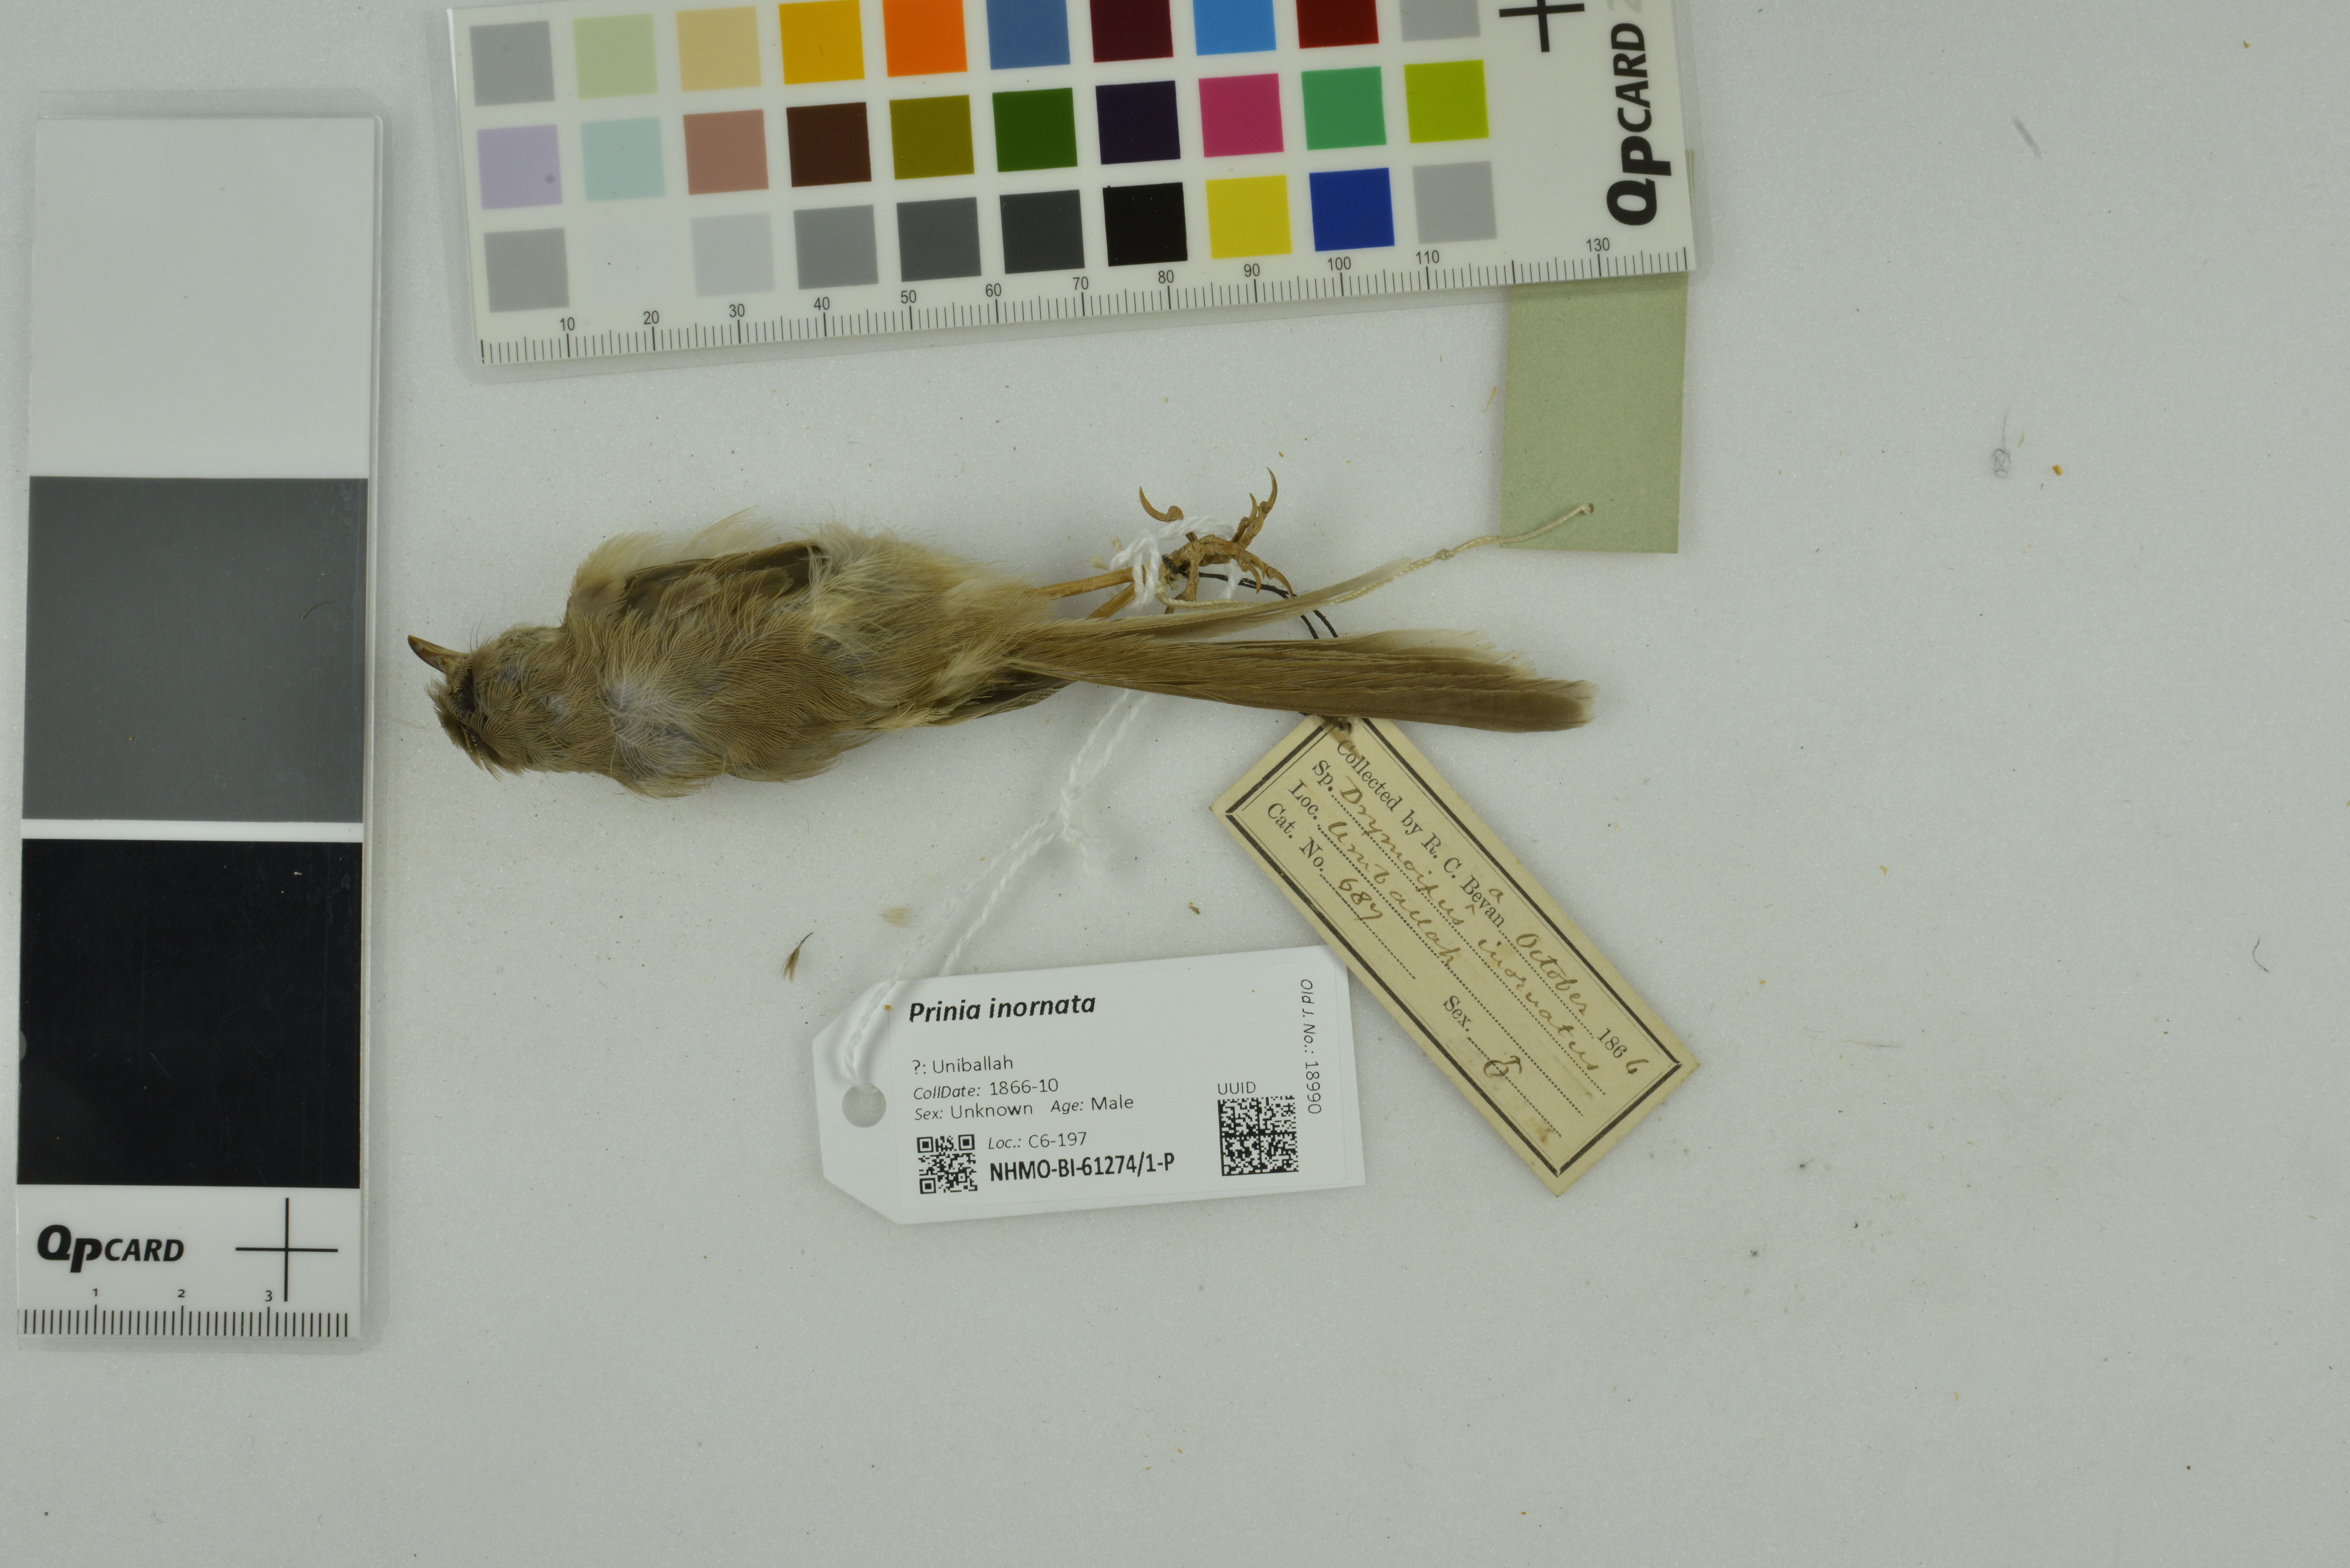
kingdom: Animalia
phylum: Chordata
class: Aves
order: Passeriformes
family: Cisticolidae
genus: Prinia
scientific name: Prinia inornata
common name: Plain prinia
